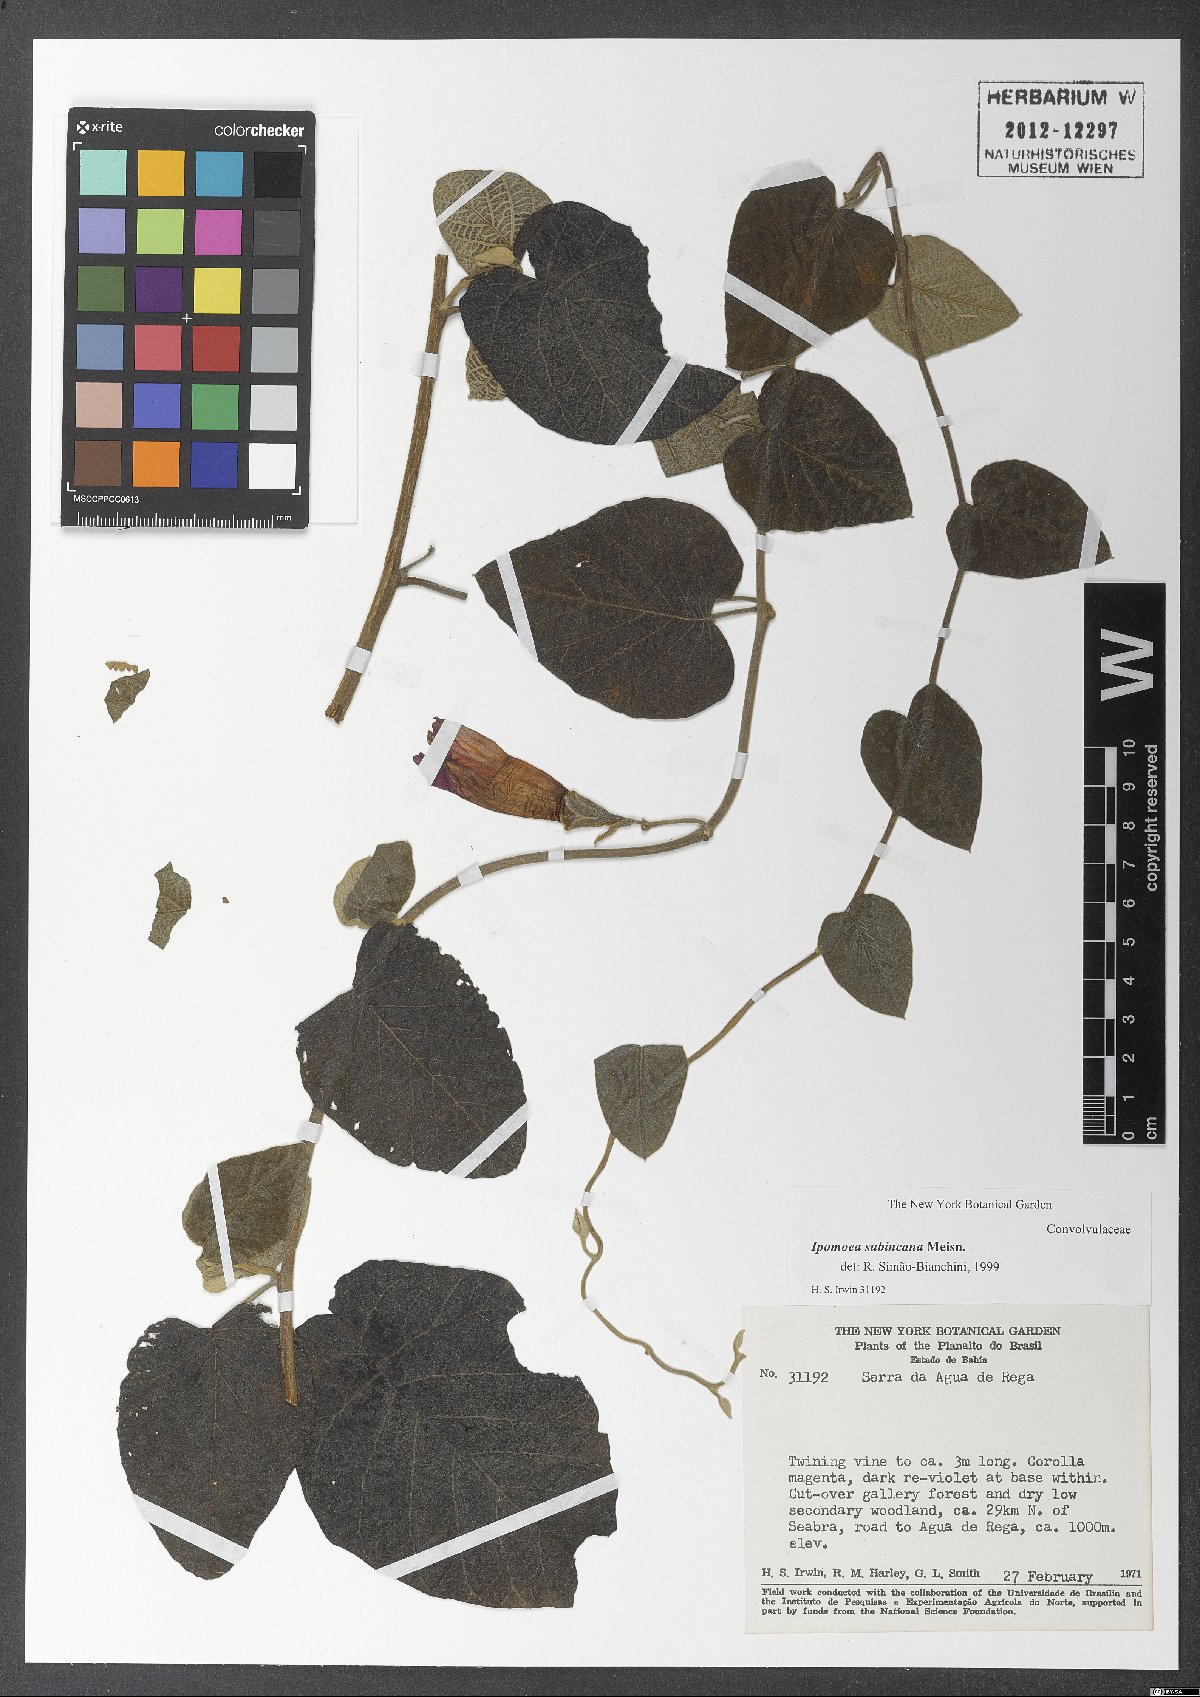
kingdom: Plantae
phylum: Tracheophyta
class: Magnoliopsida
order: Solanales
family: Convolvulaceae
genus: Ipomoea
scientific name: Ipomoea brasiliana
